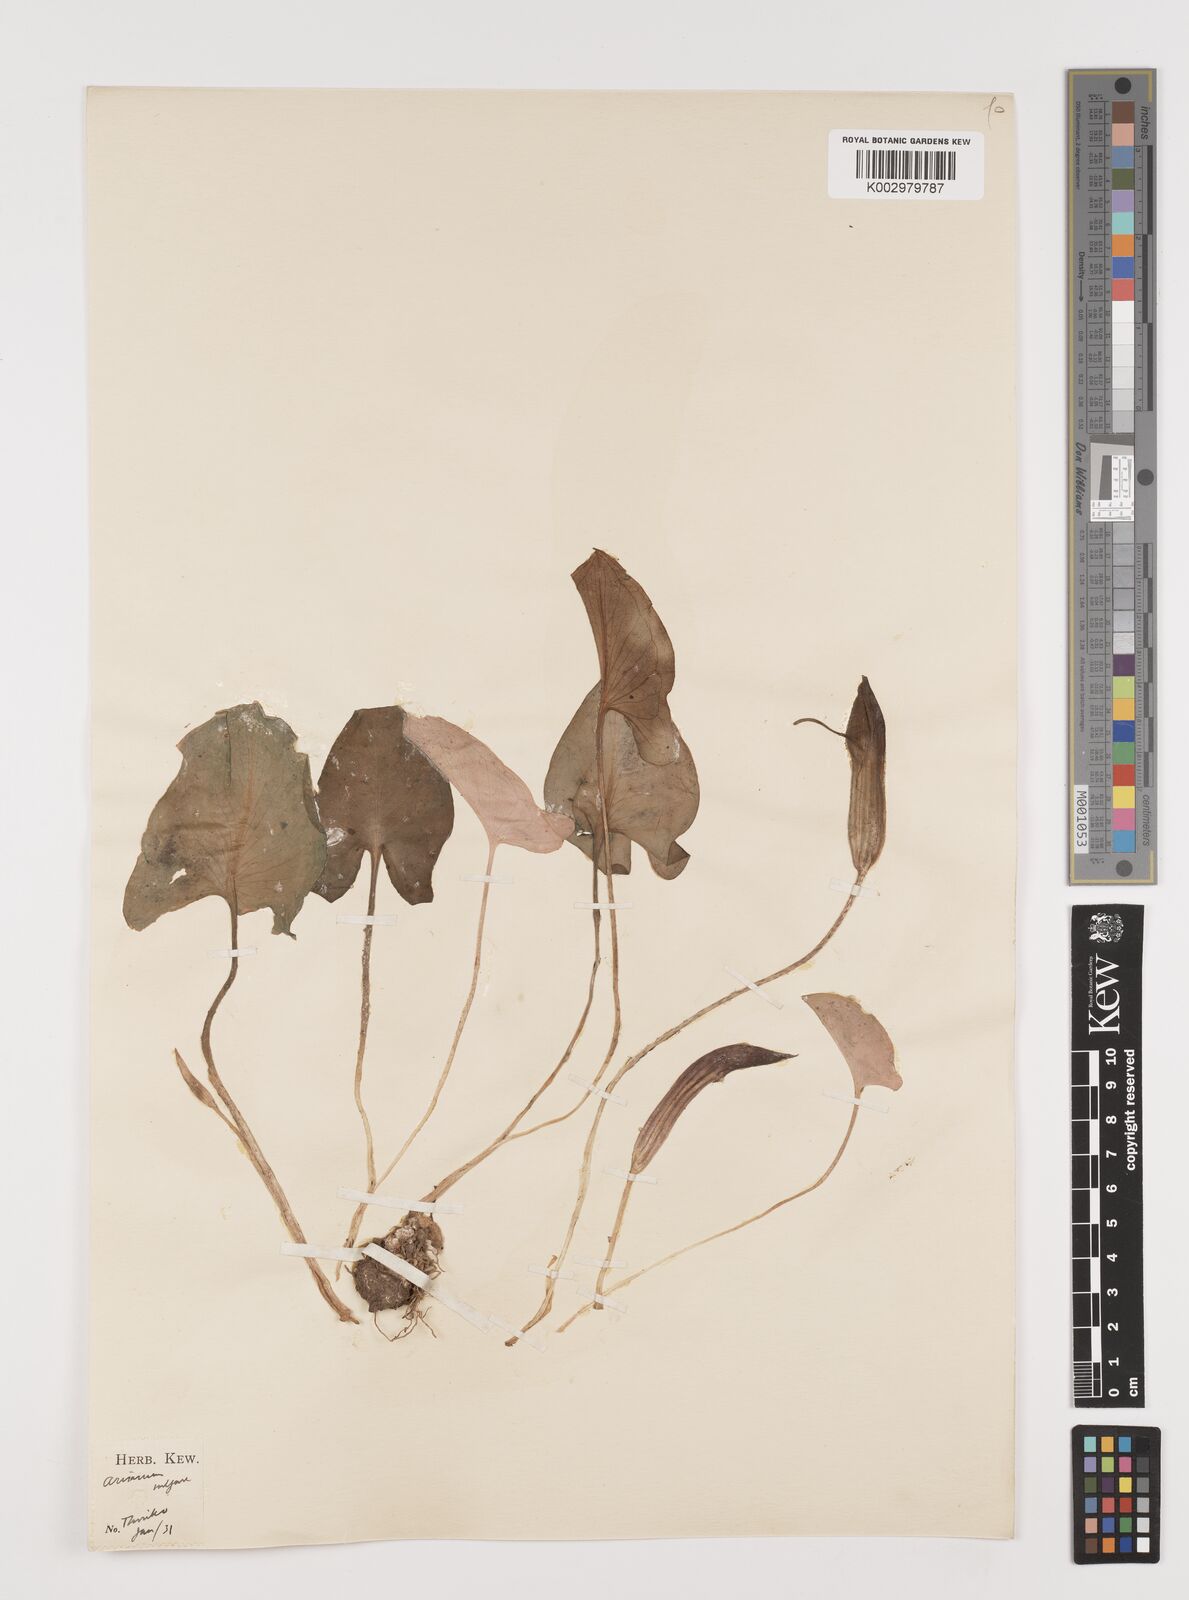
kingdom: Plantae
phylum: Tracheophyta
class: Liliopsida
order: Alismatales
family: Araceae
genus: Arisarum
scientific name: Arisarum vulgare
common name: Common arisarum
